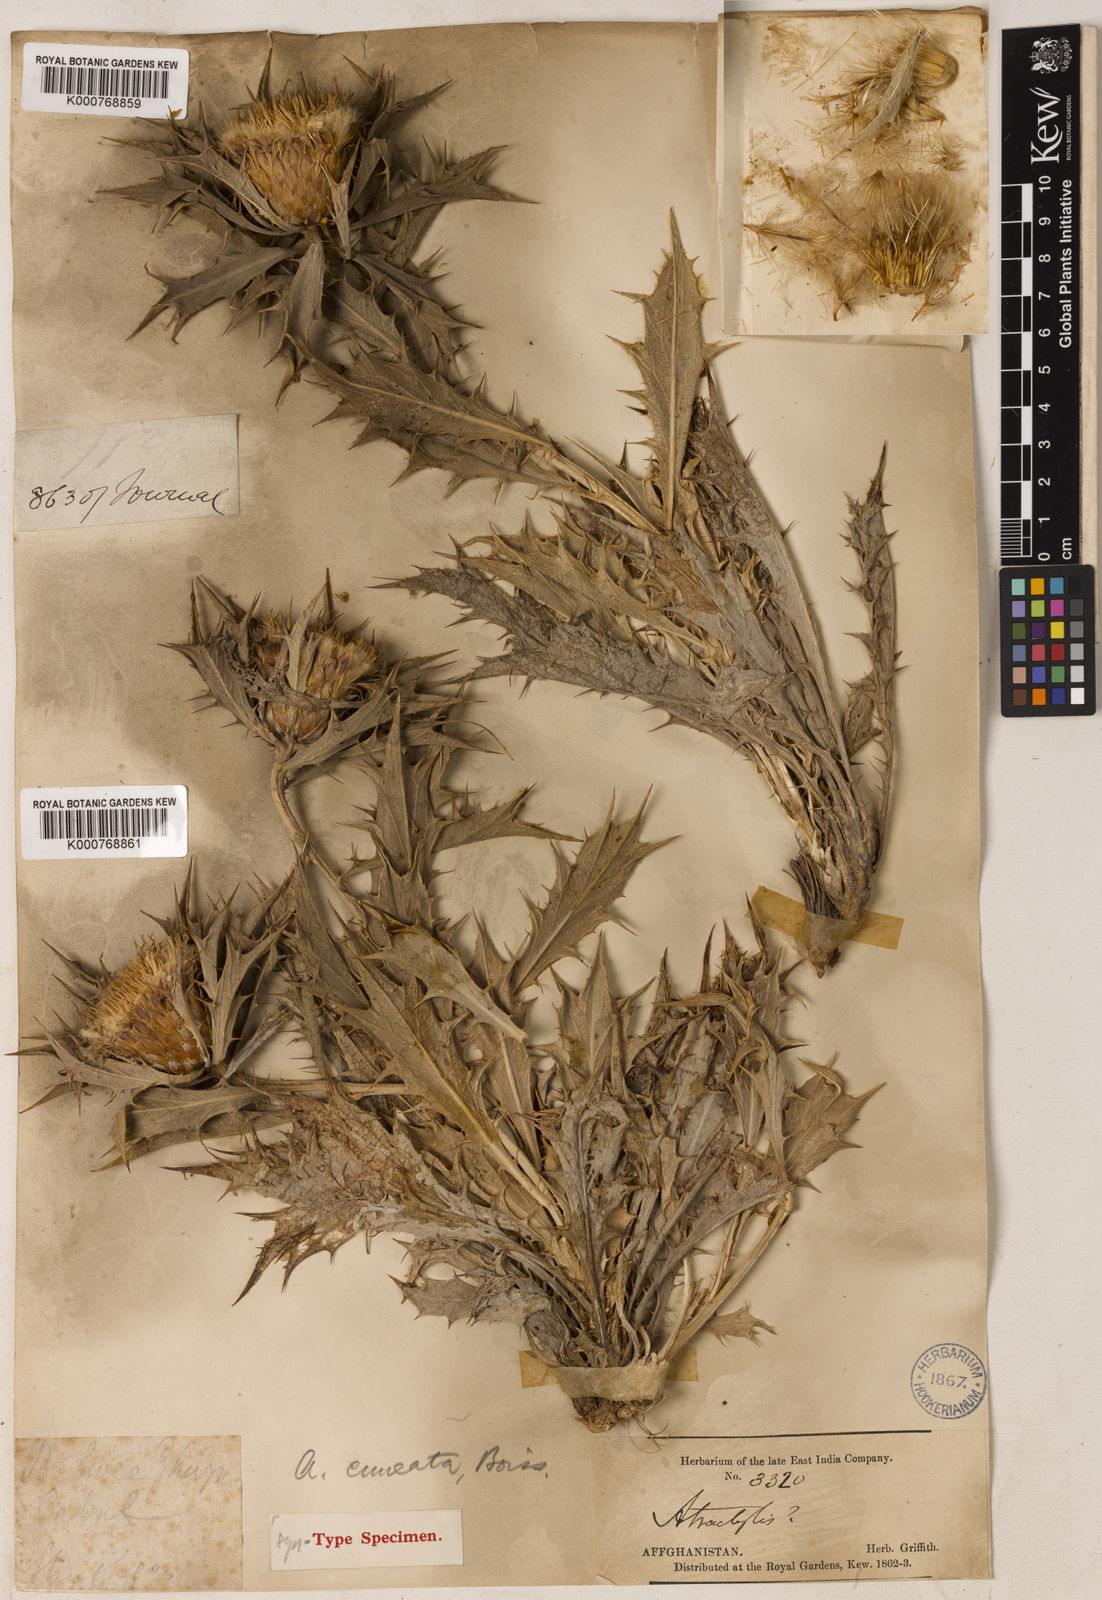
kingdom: Plantae
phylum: Tracheophyta
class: Magnoliopsida
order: Asterales
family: Asteraceae
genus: Chamaeleon
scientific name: Chamaeleon cuneatus
